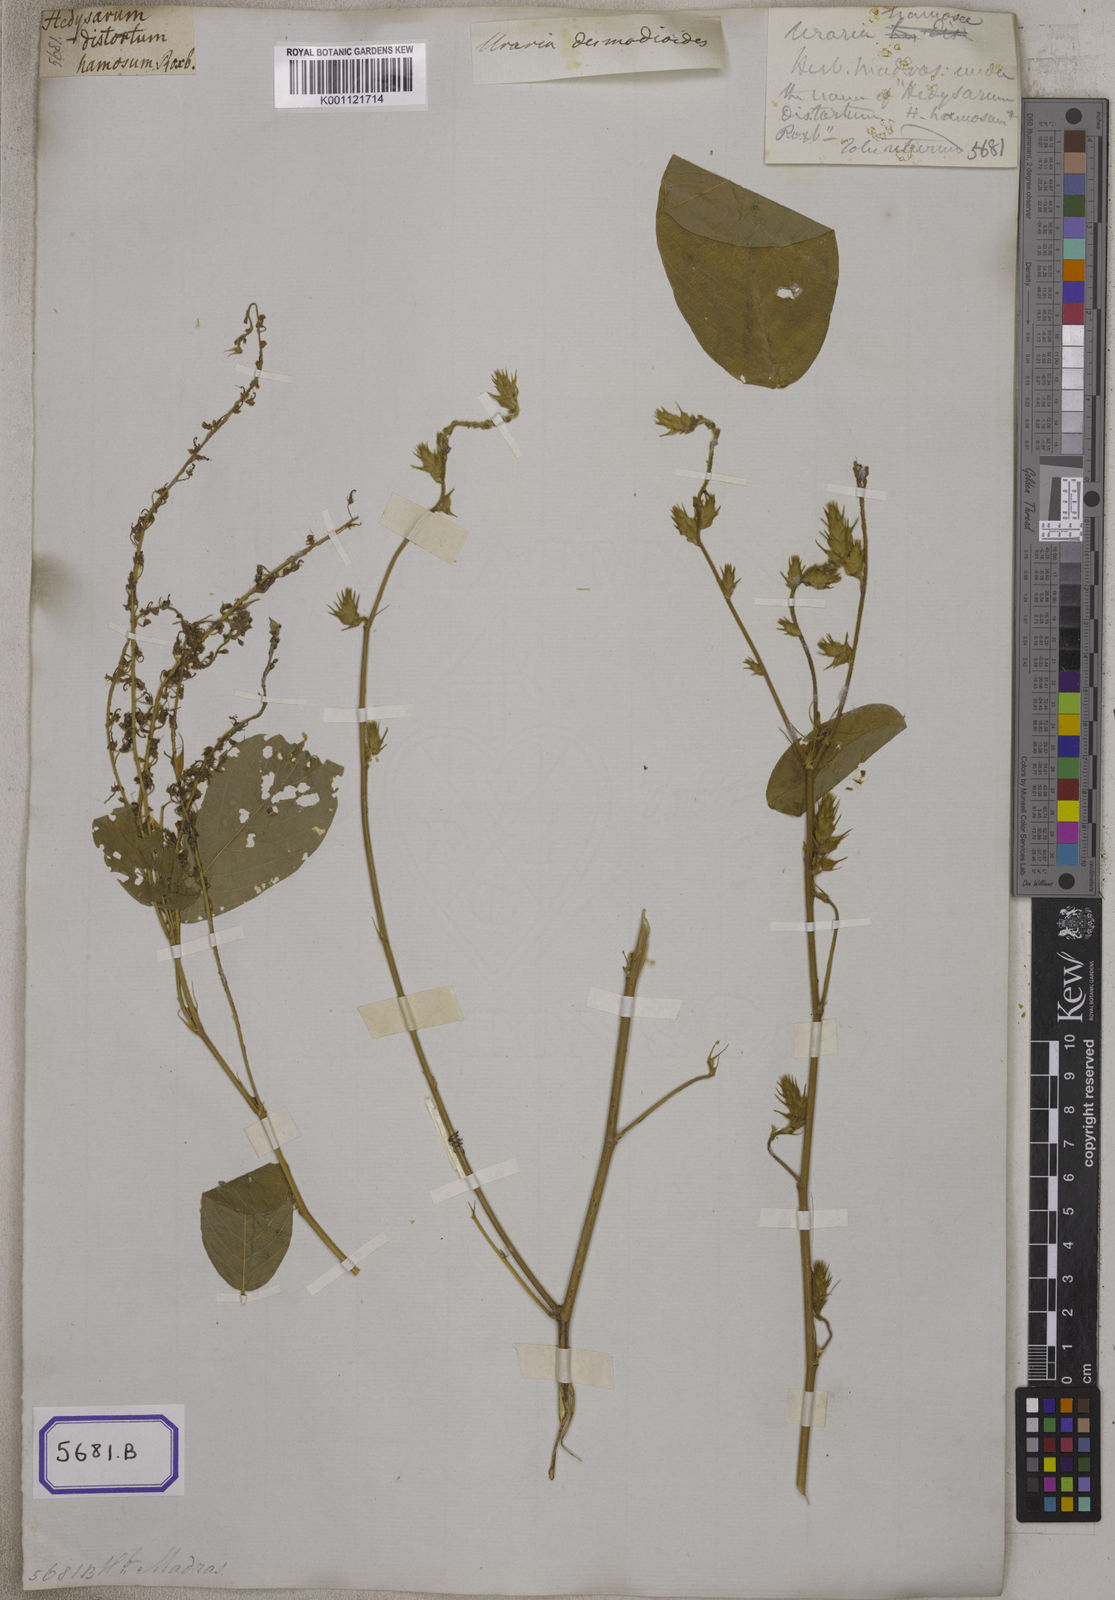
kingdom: Plantae
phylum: Tracheophyta
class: Magnoliopsida
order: Fabales
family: Fabaceae
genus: Uraria
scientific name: Uraria lagopus
